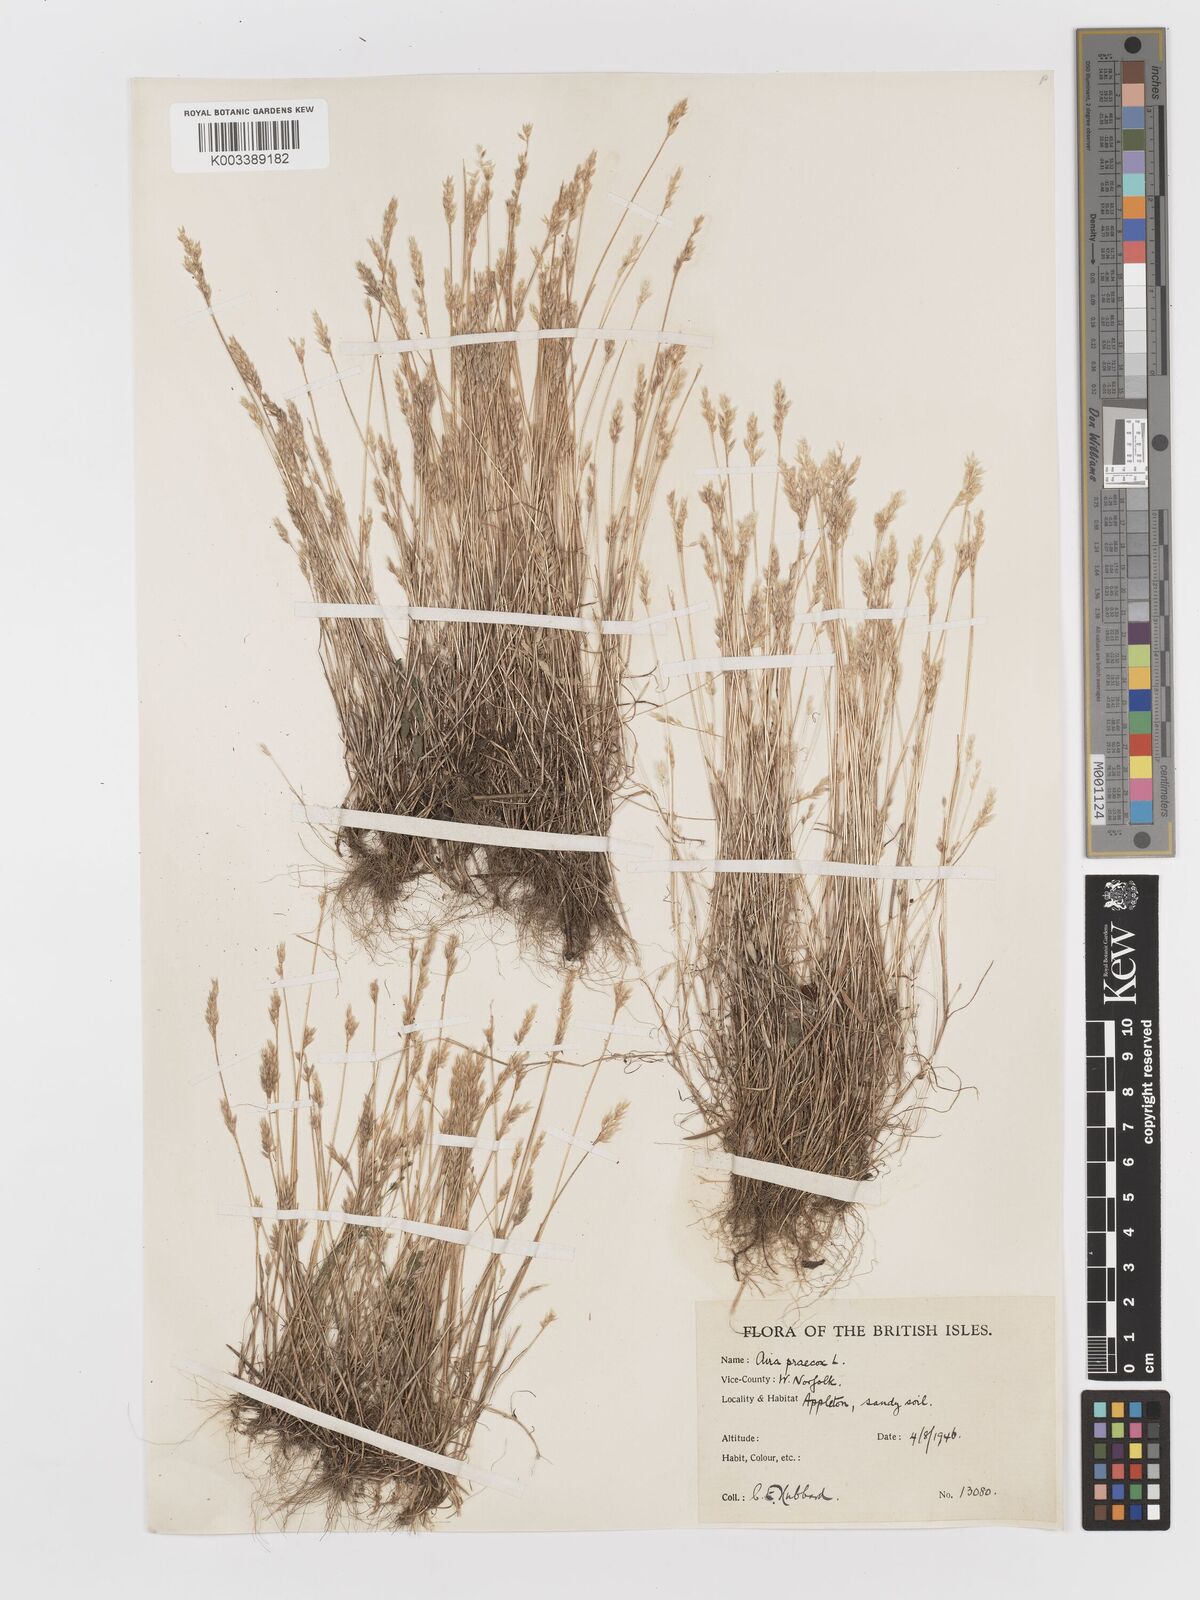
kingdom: Plantae
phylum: Tracheophyta
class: Liliopsida
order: Poales
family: Poaceae
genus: Aira
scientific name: Aira praecox
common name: Early hair-grass
